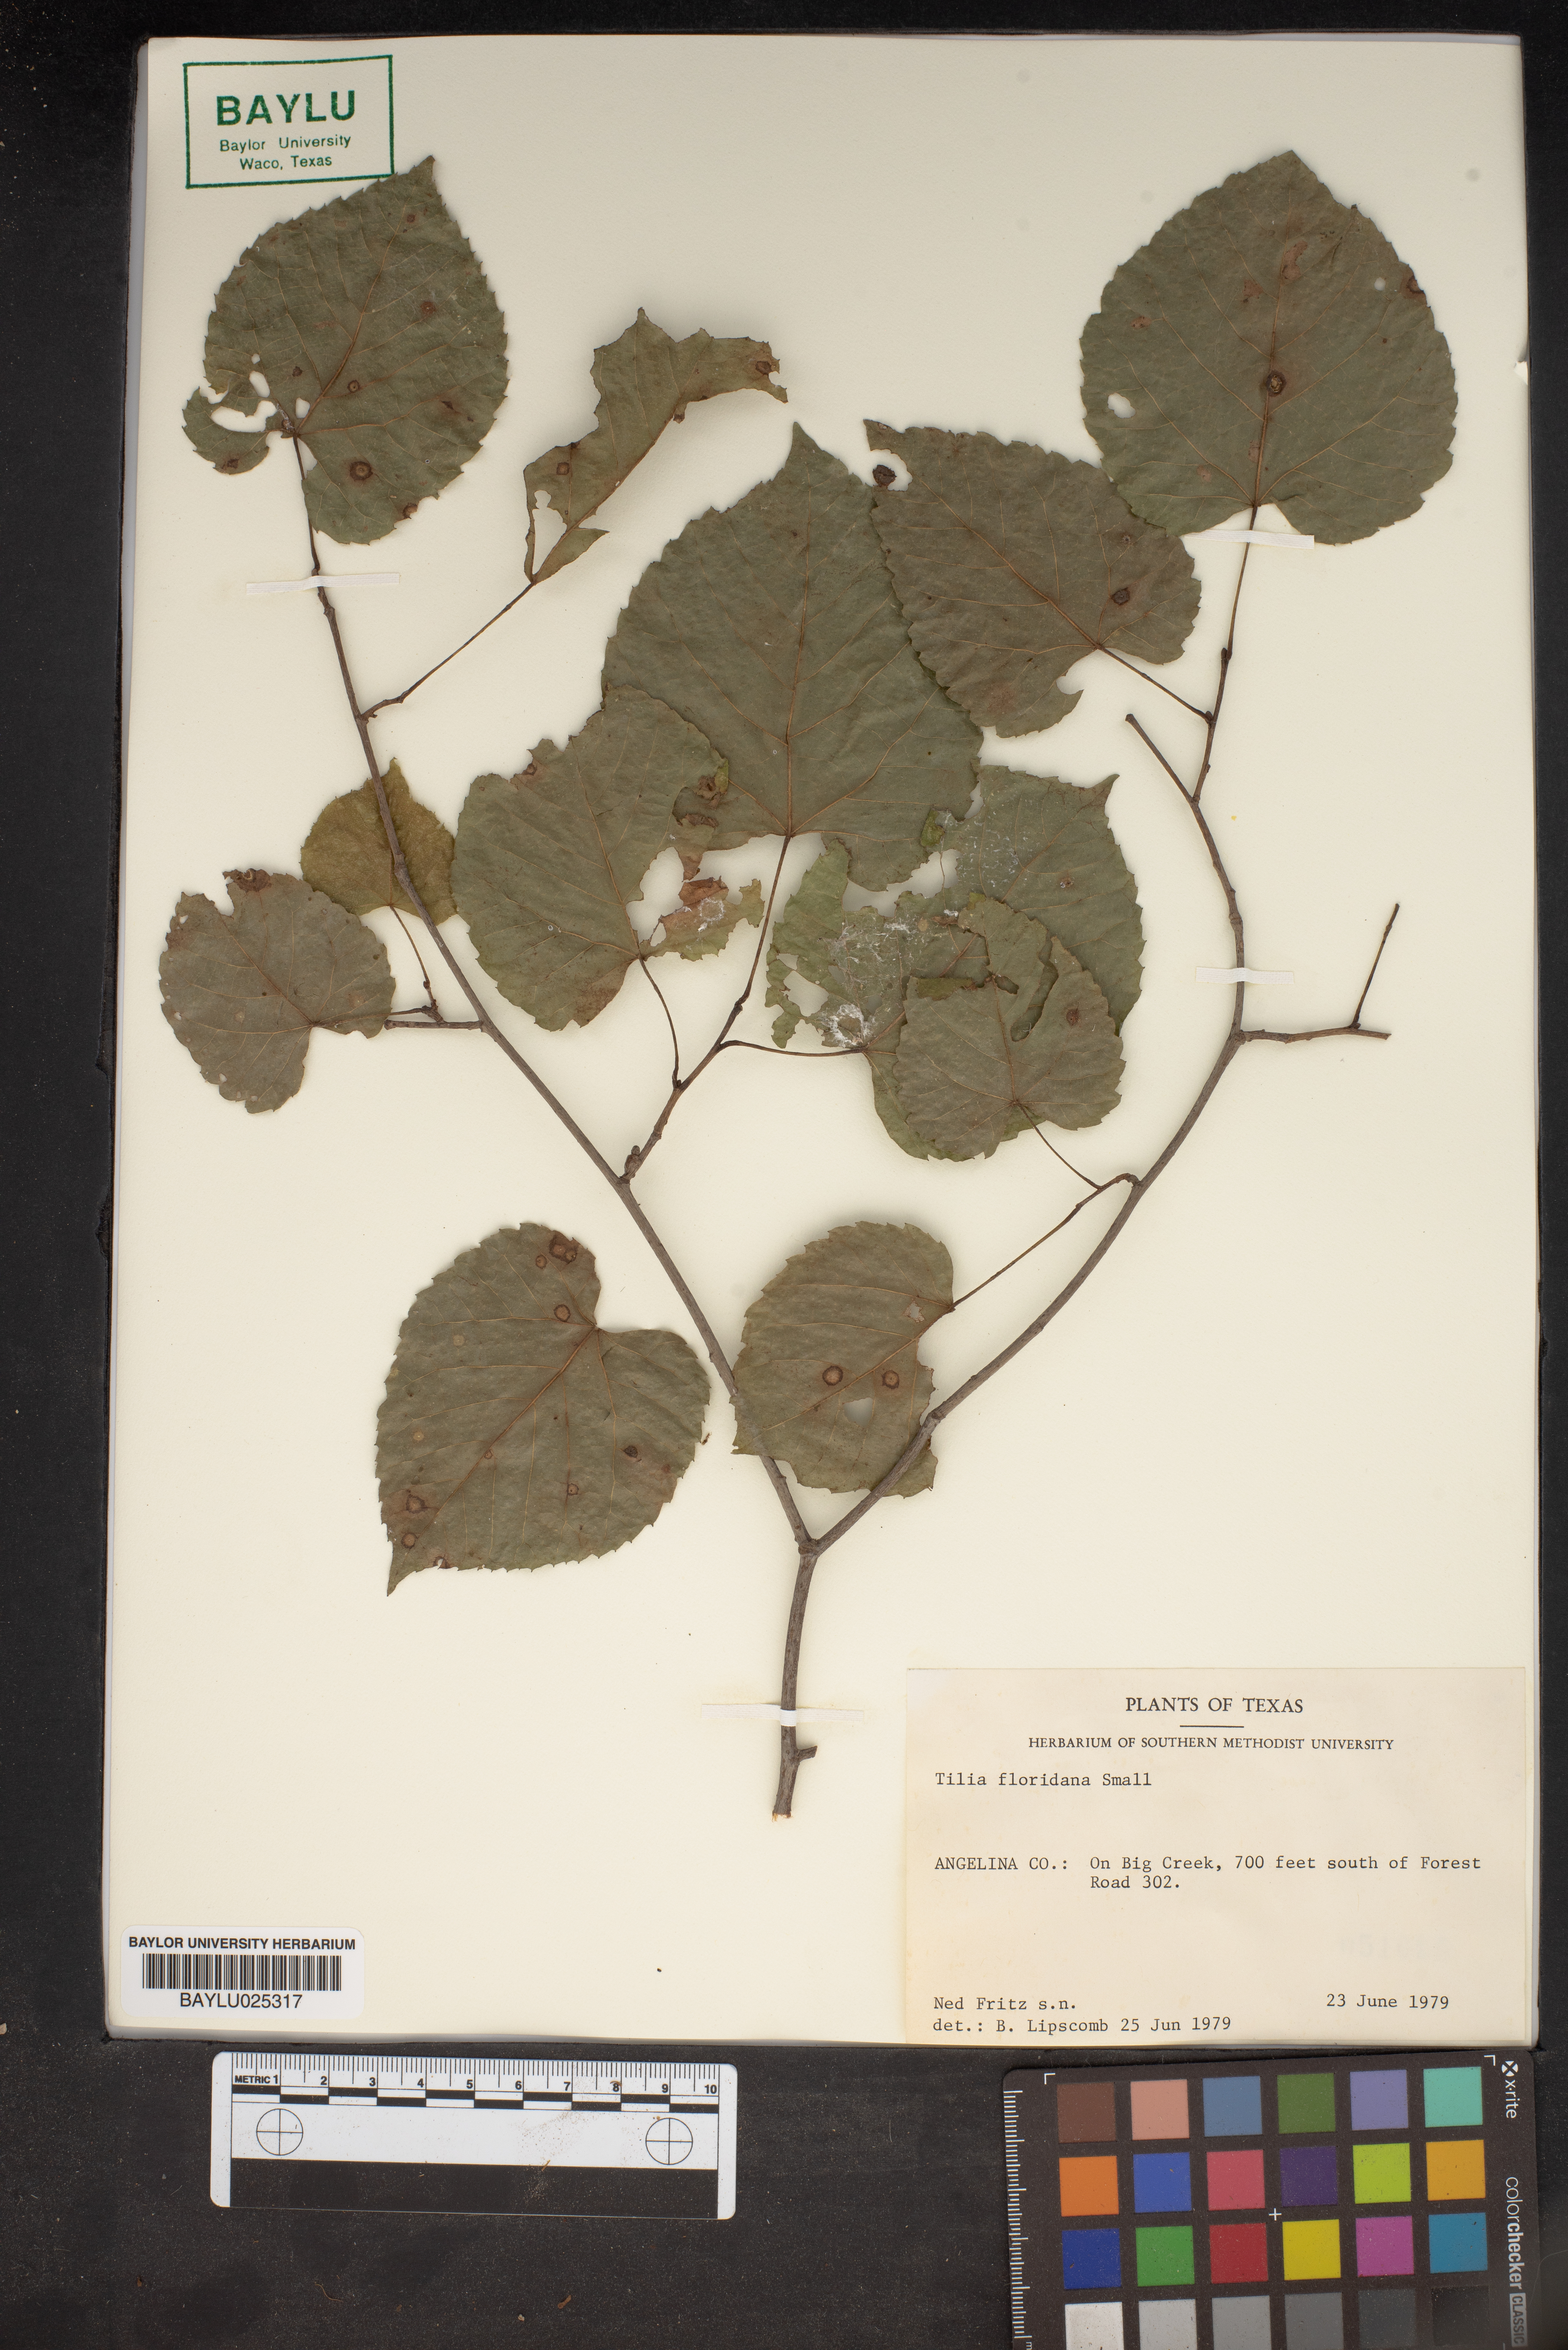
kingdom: Plantae
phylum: Tracheophyta
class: Magnoliopsida
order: Malvales
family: Malvaceae
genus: Tilia
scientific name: Tilia americana
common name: Basswood
